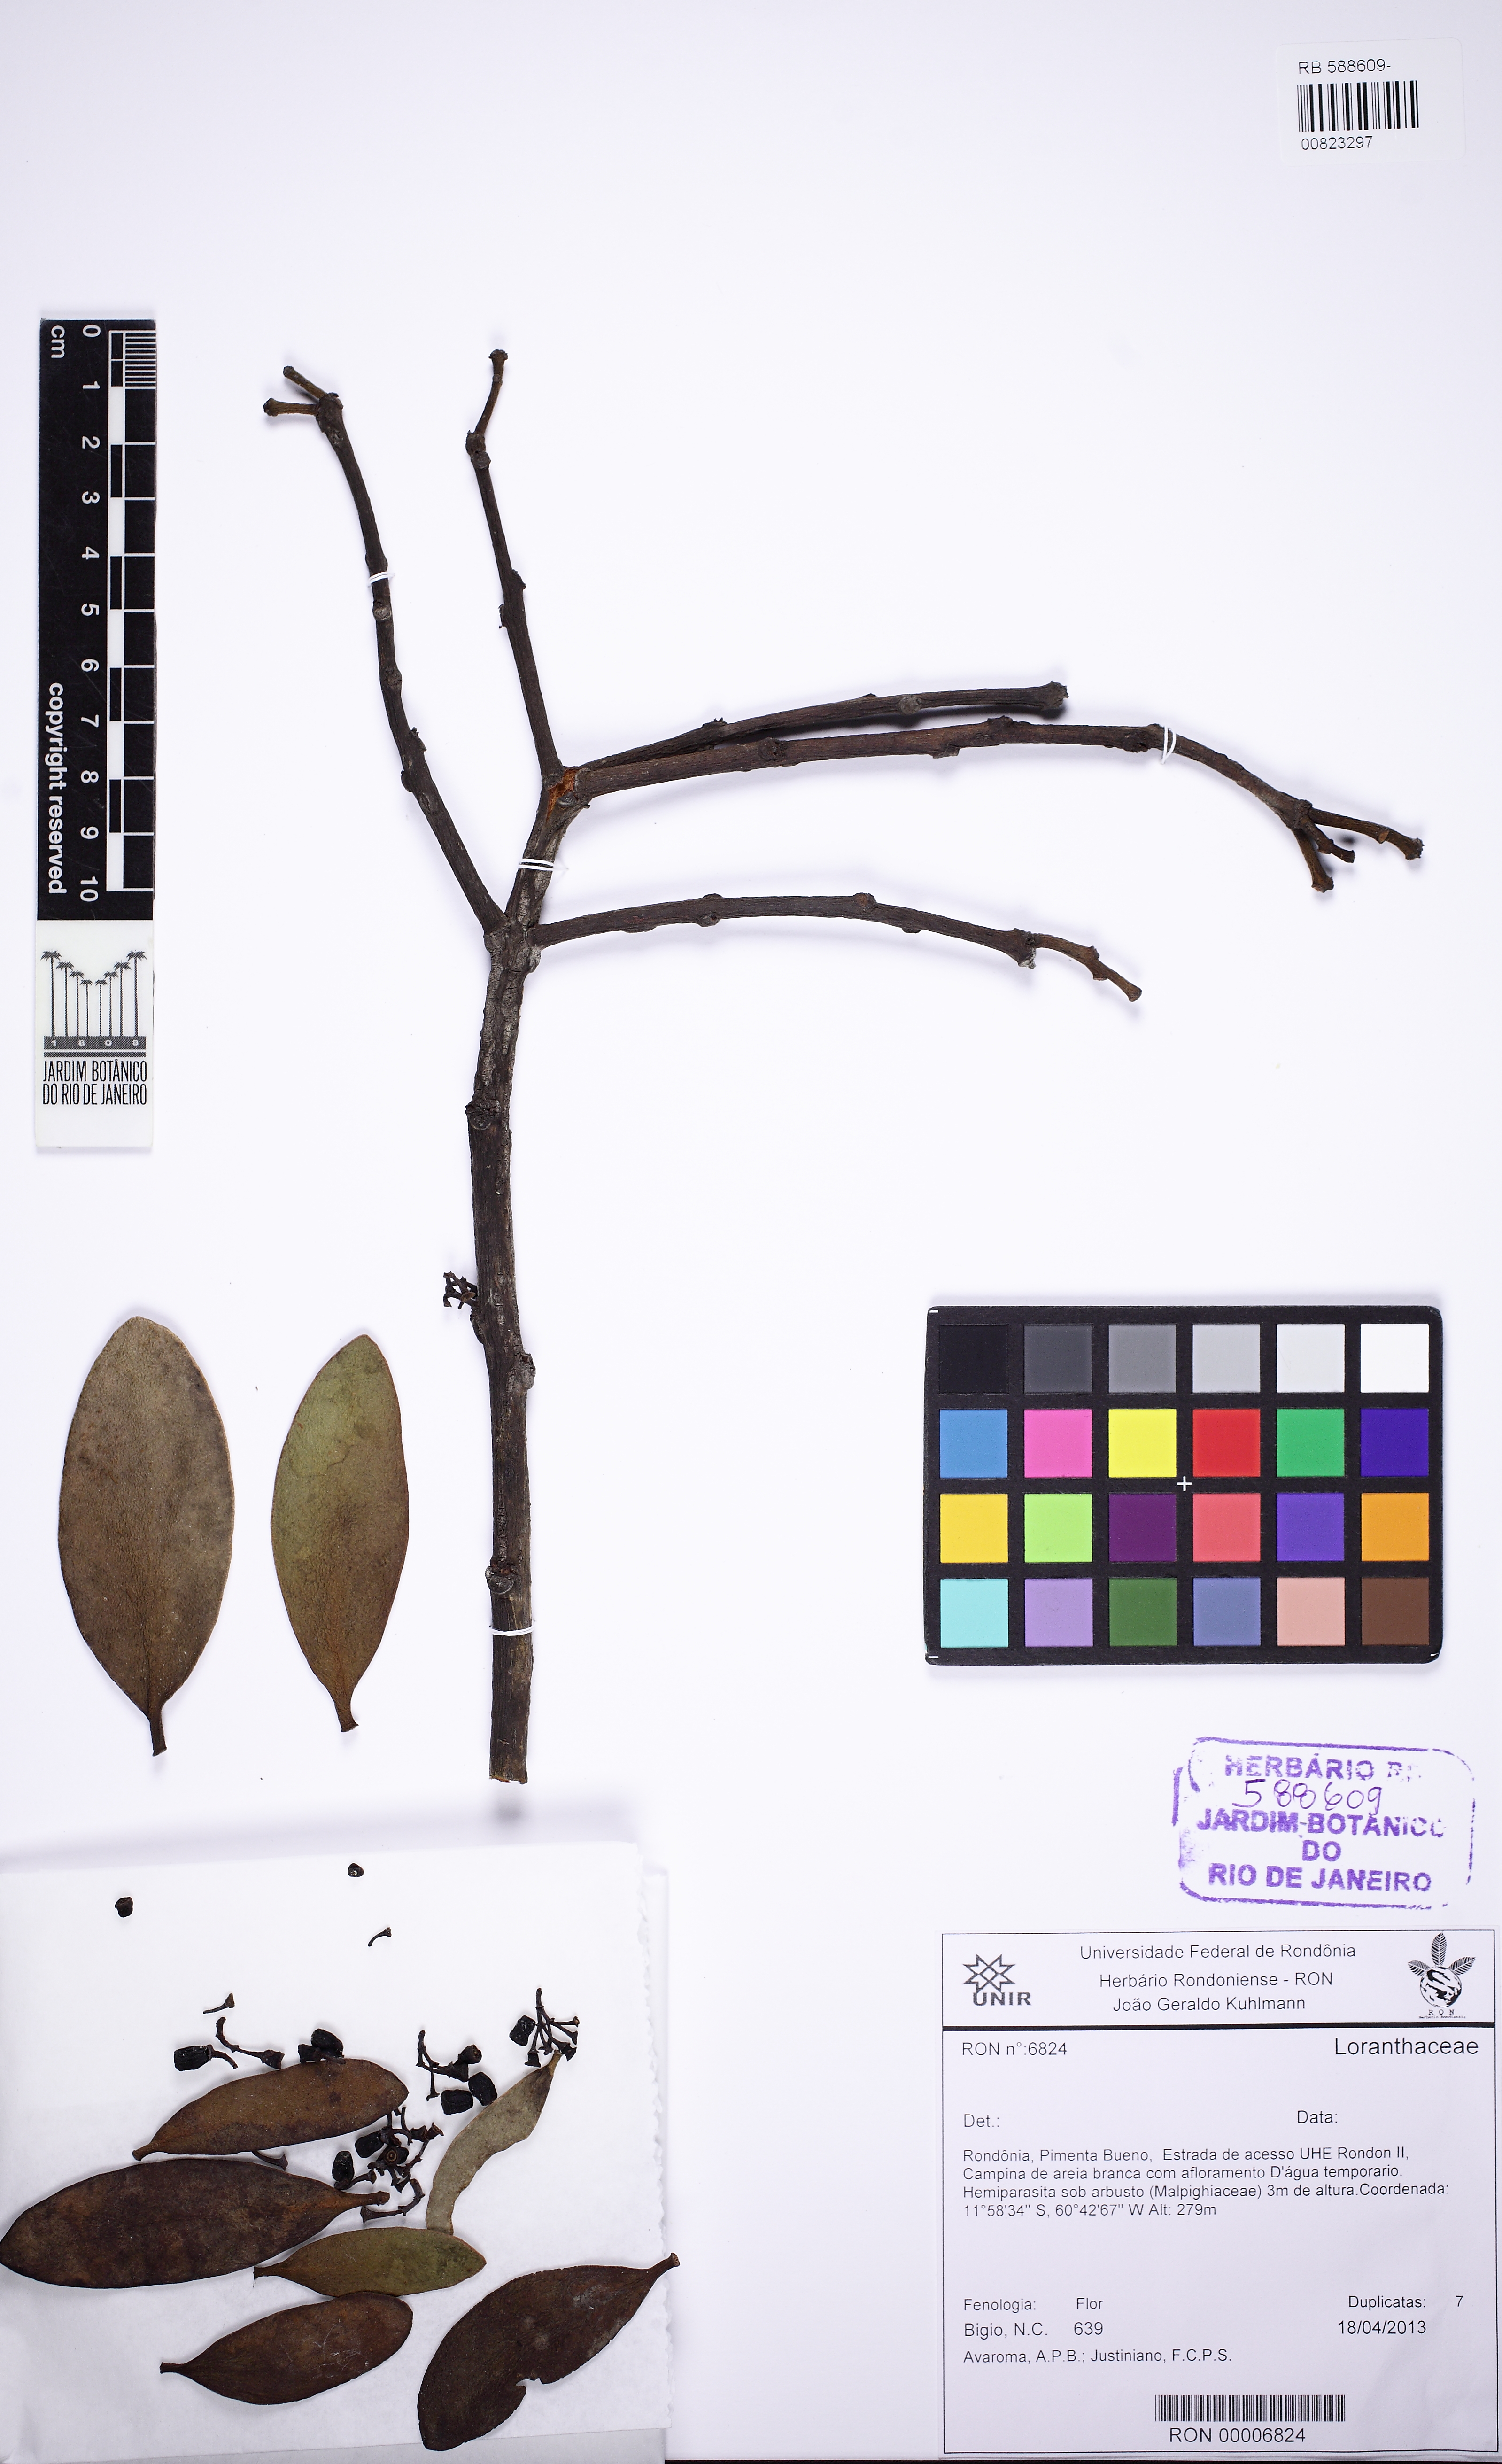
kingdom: Plantae
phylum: Tracheophyta
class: Magnoliopsida
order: Santalales
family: Loranthaceae
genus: Psittacanthus
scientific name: Psittacanthus
